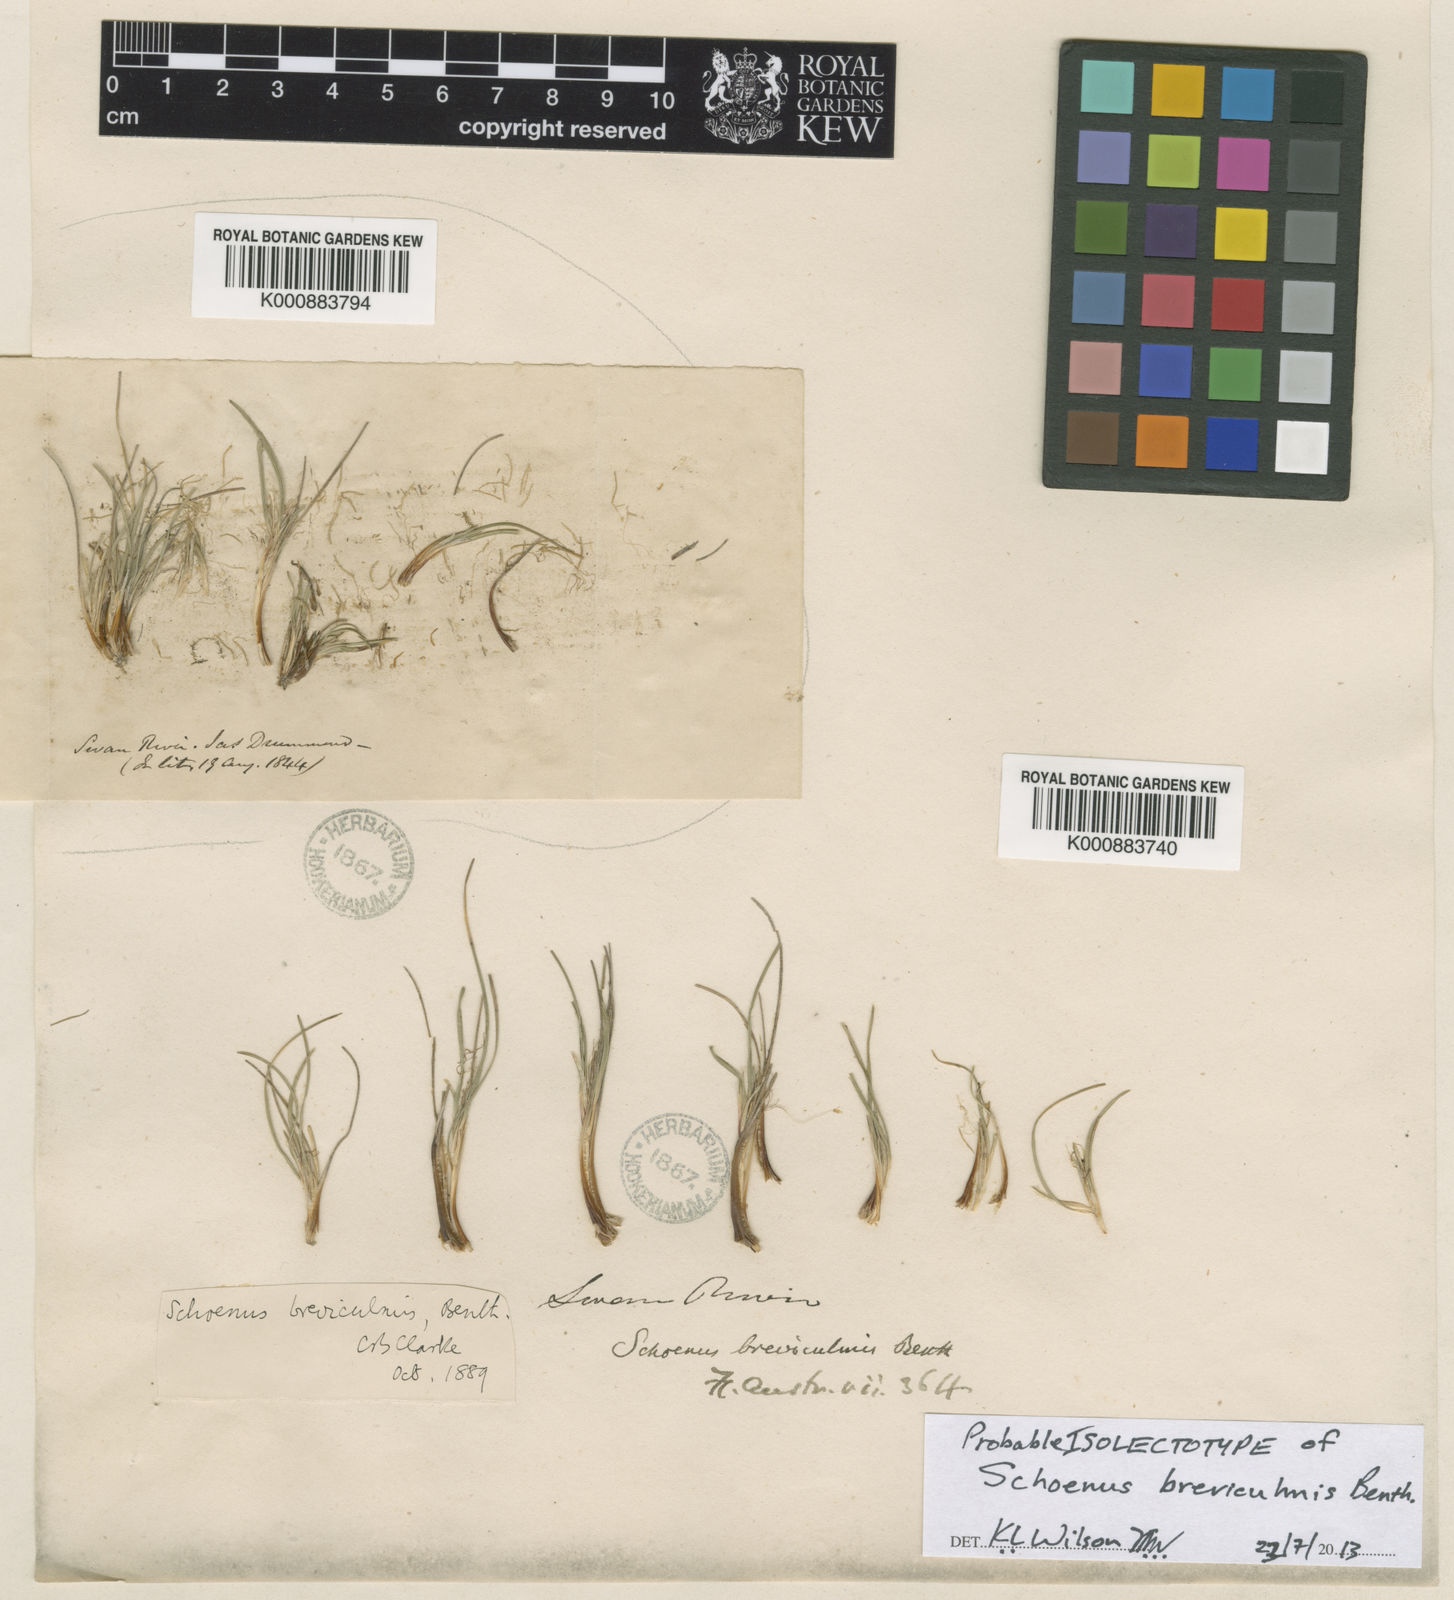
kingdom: Plantae
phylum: Tracheophyta
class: Liliopsida
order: Poales
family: Cyperaceae
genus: Schoenus
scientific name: Schoenus breviculmis
